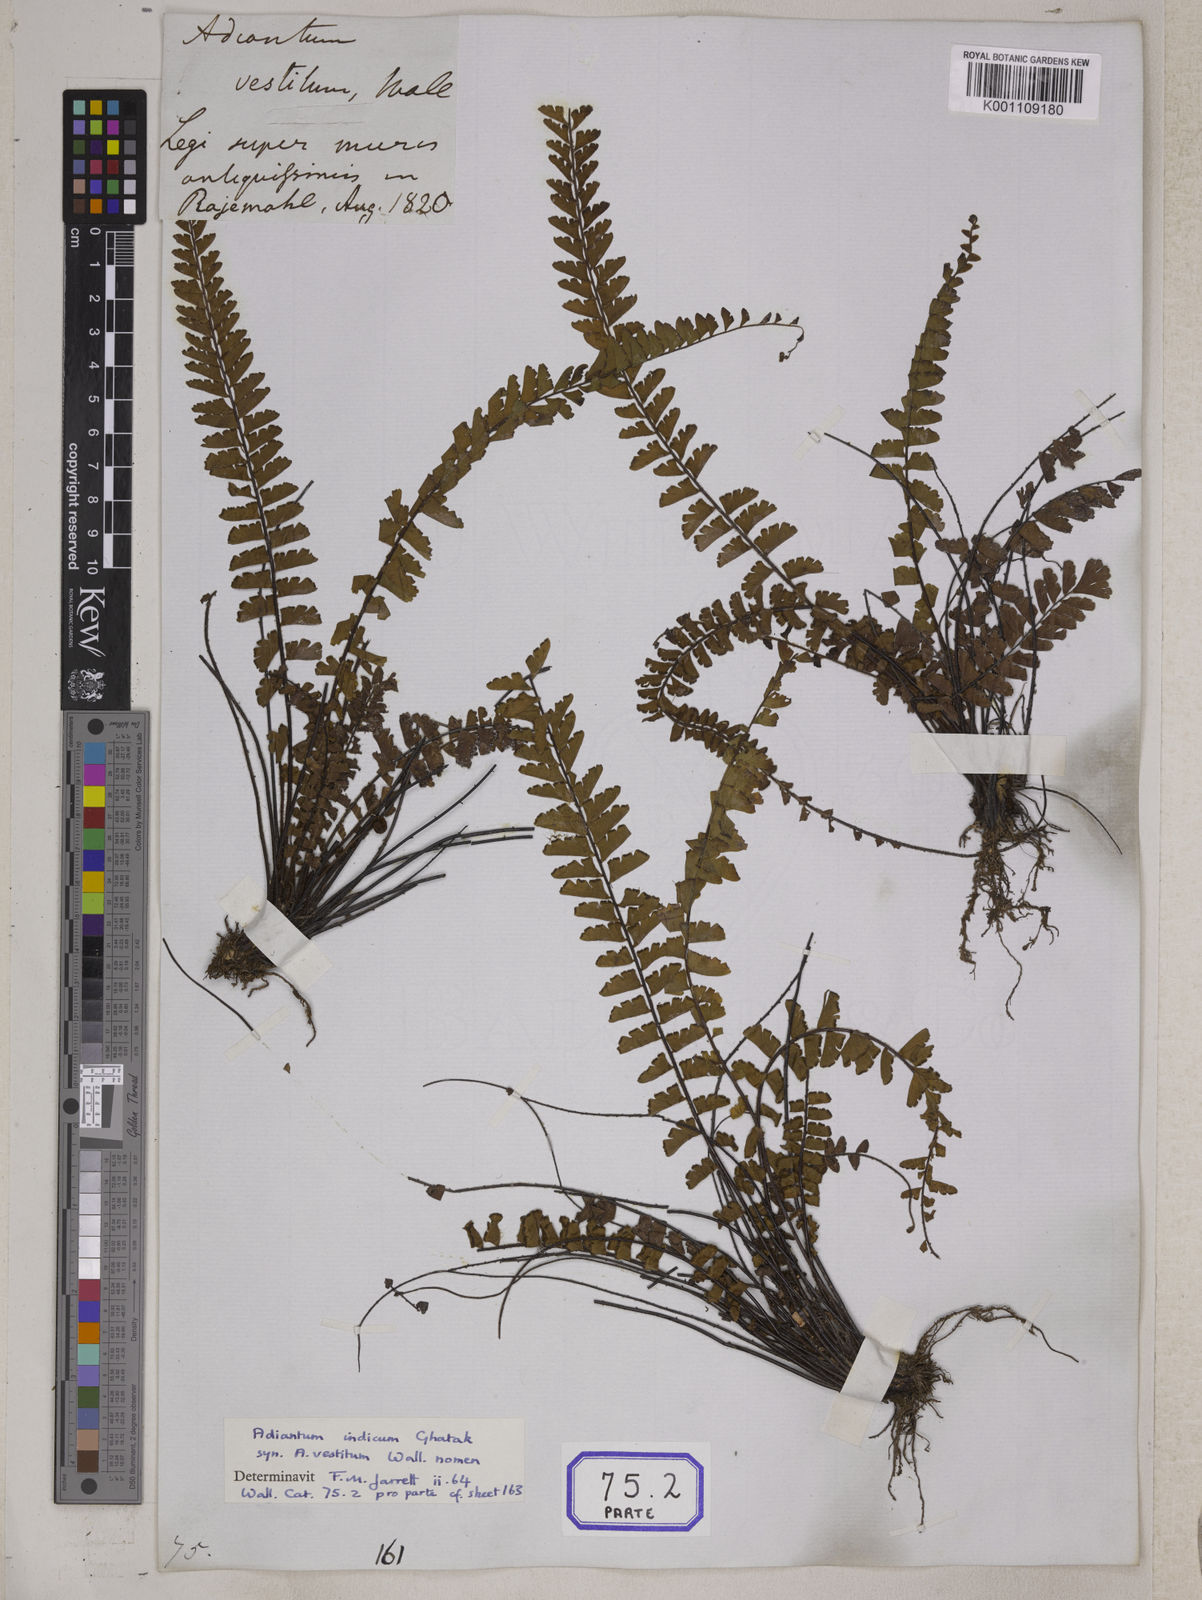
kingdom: Plantae
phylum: Tracheophyta
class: Polypodiopsida
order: Polypodiales
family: Pteridaceae
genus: Adiantum
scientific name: Adiantum incisum
